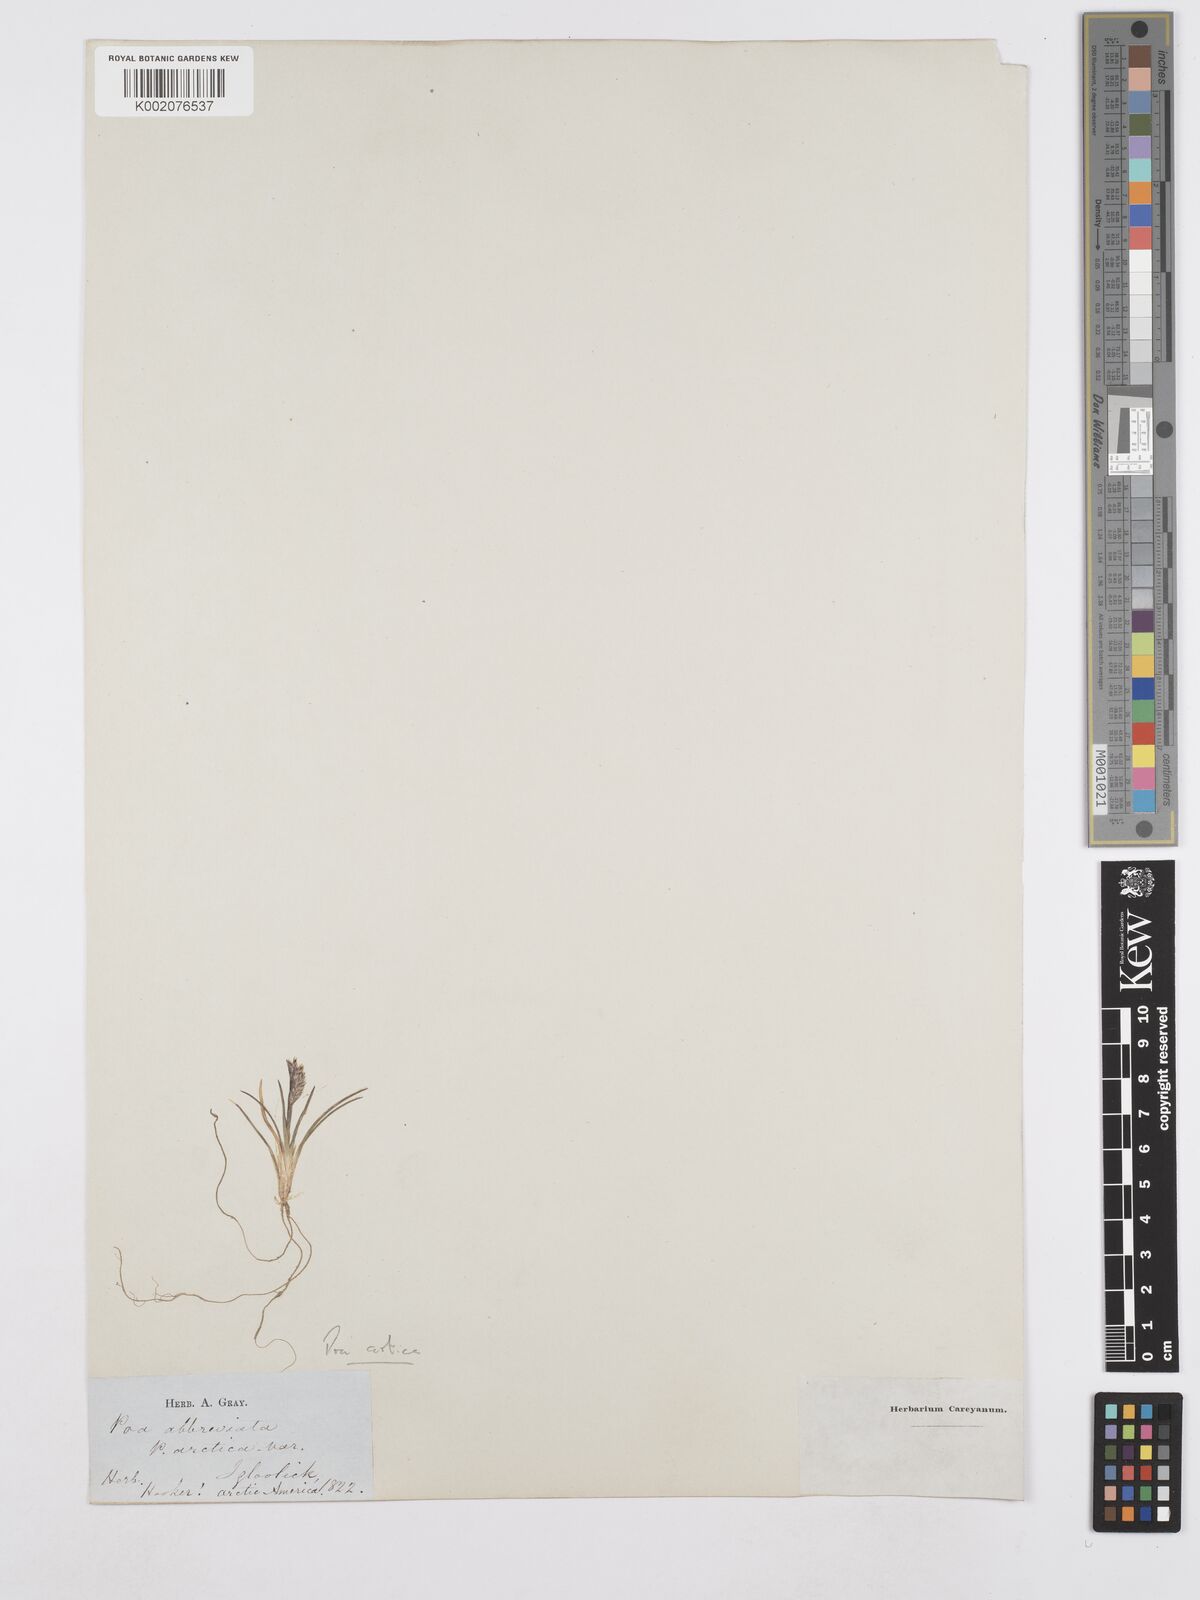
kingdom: Plantae
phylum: Tracheophyta
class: Liliopsida
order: Poales
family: Poaceae
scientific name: Poaceae
